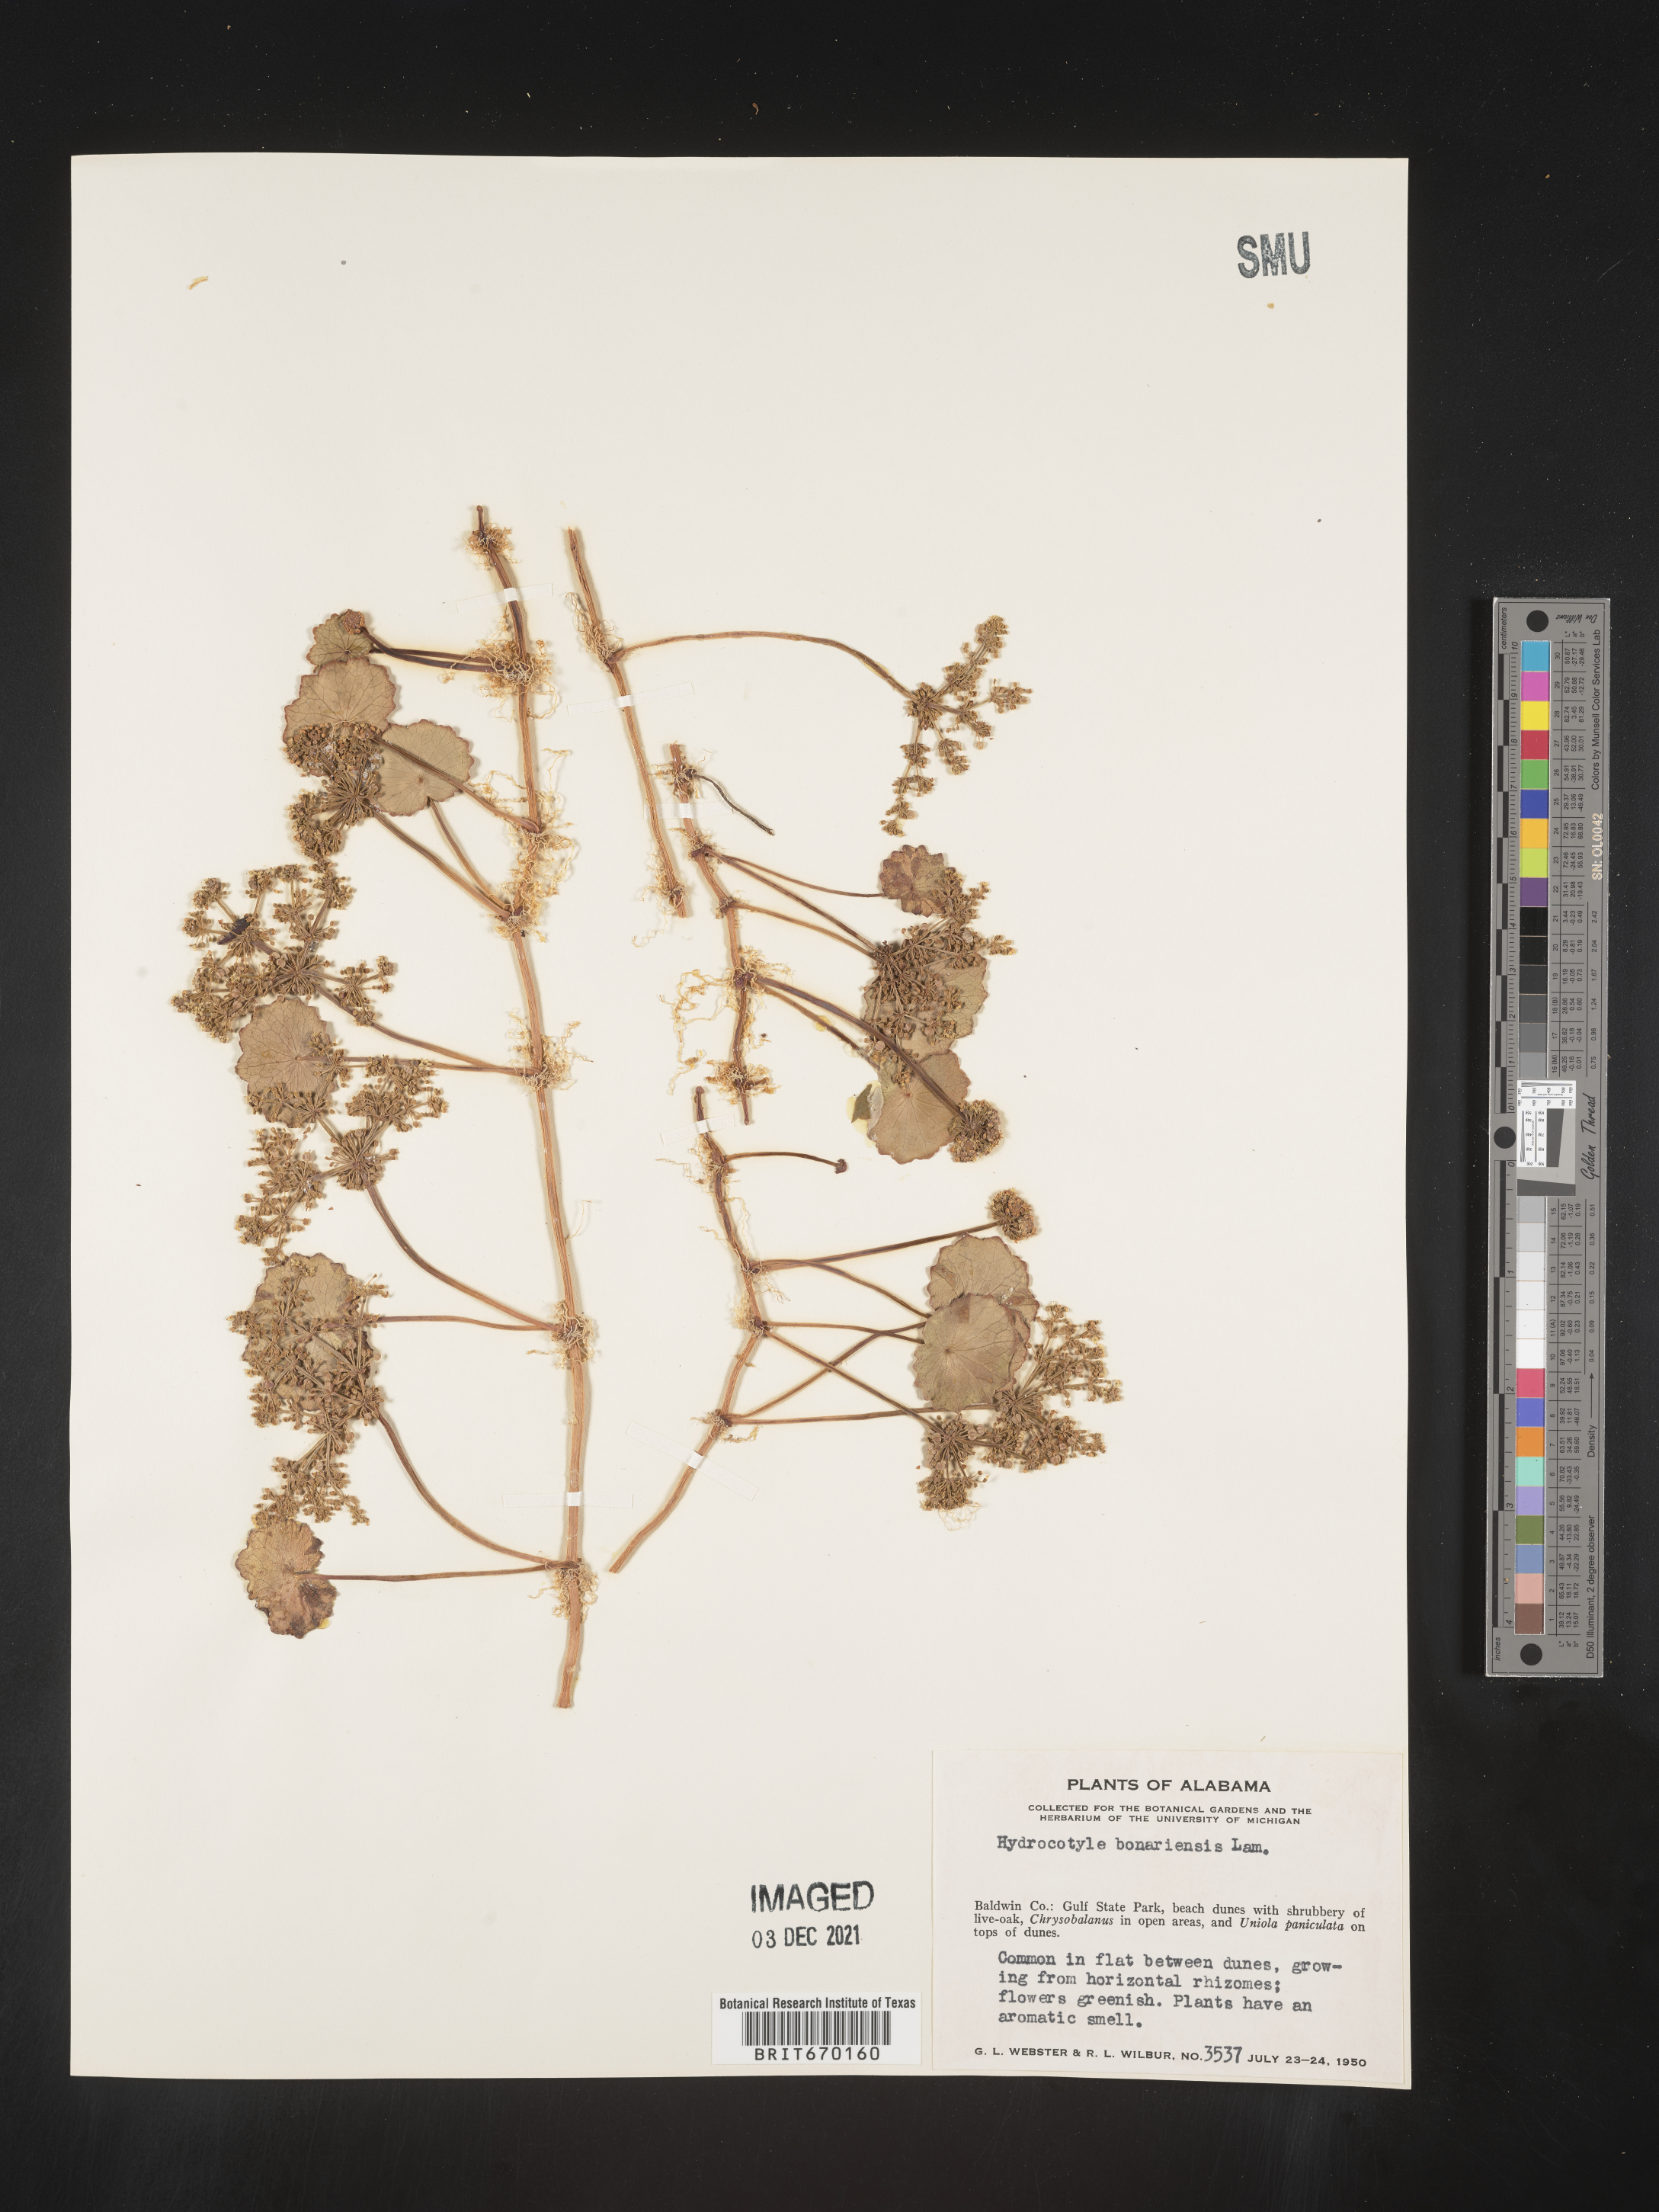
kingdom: Plantae
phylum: Tracheophyta
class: Magnoliopsida
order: Apiales
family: Araliaceae
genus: Hydrocotyle
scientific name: Hydrocotyle bonariensis
